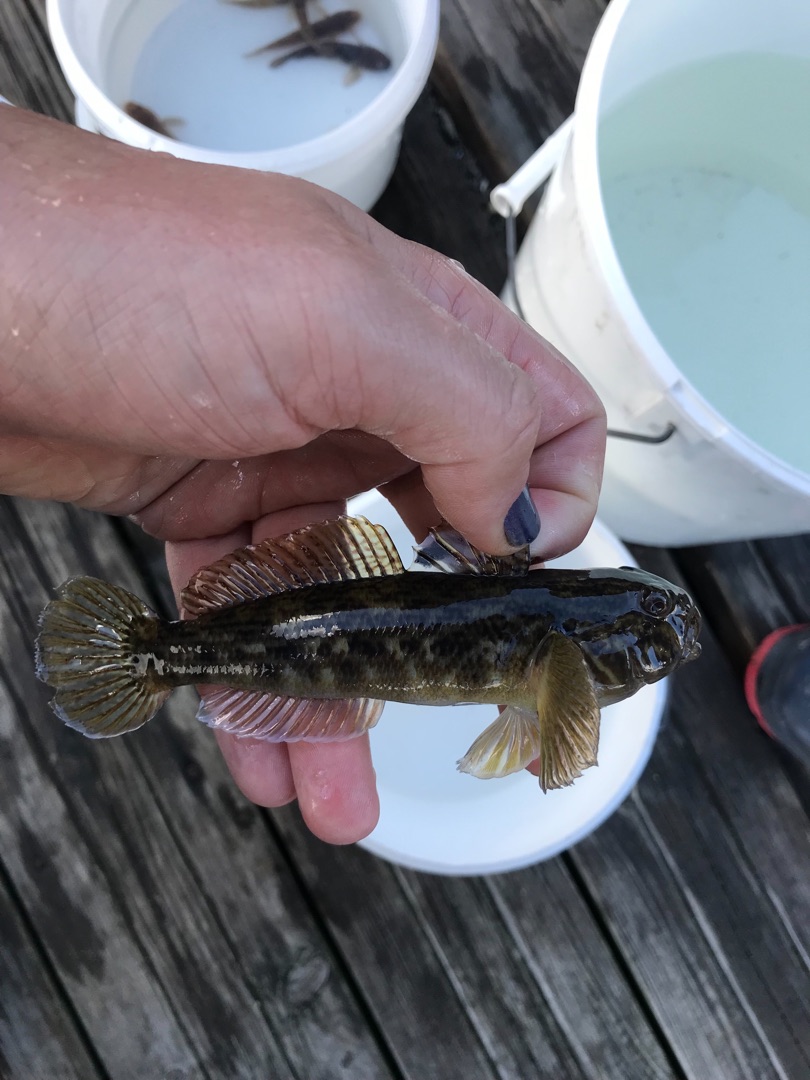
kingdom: Animalia
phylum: Chordata
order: Perciformes
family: Gobiidae
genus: Neogobius
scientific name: Neogobius melanostomus
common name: Sortmundet kutling
